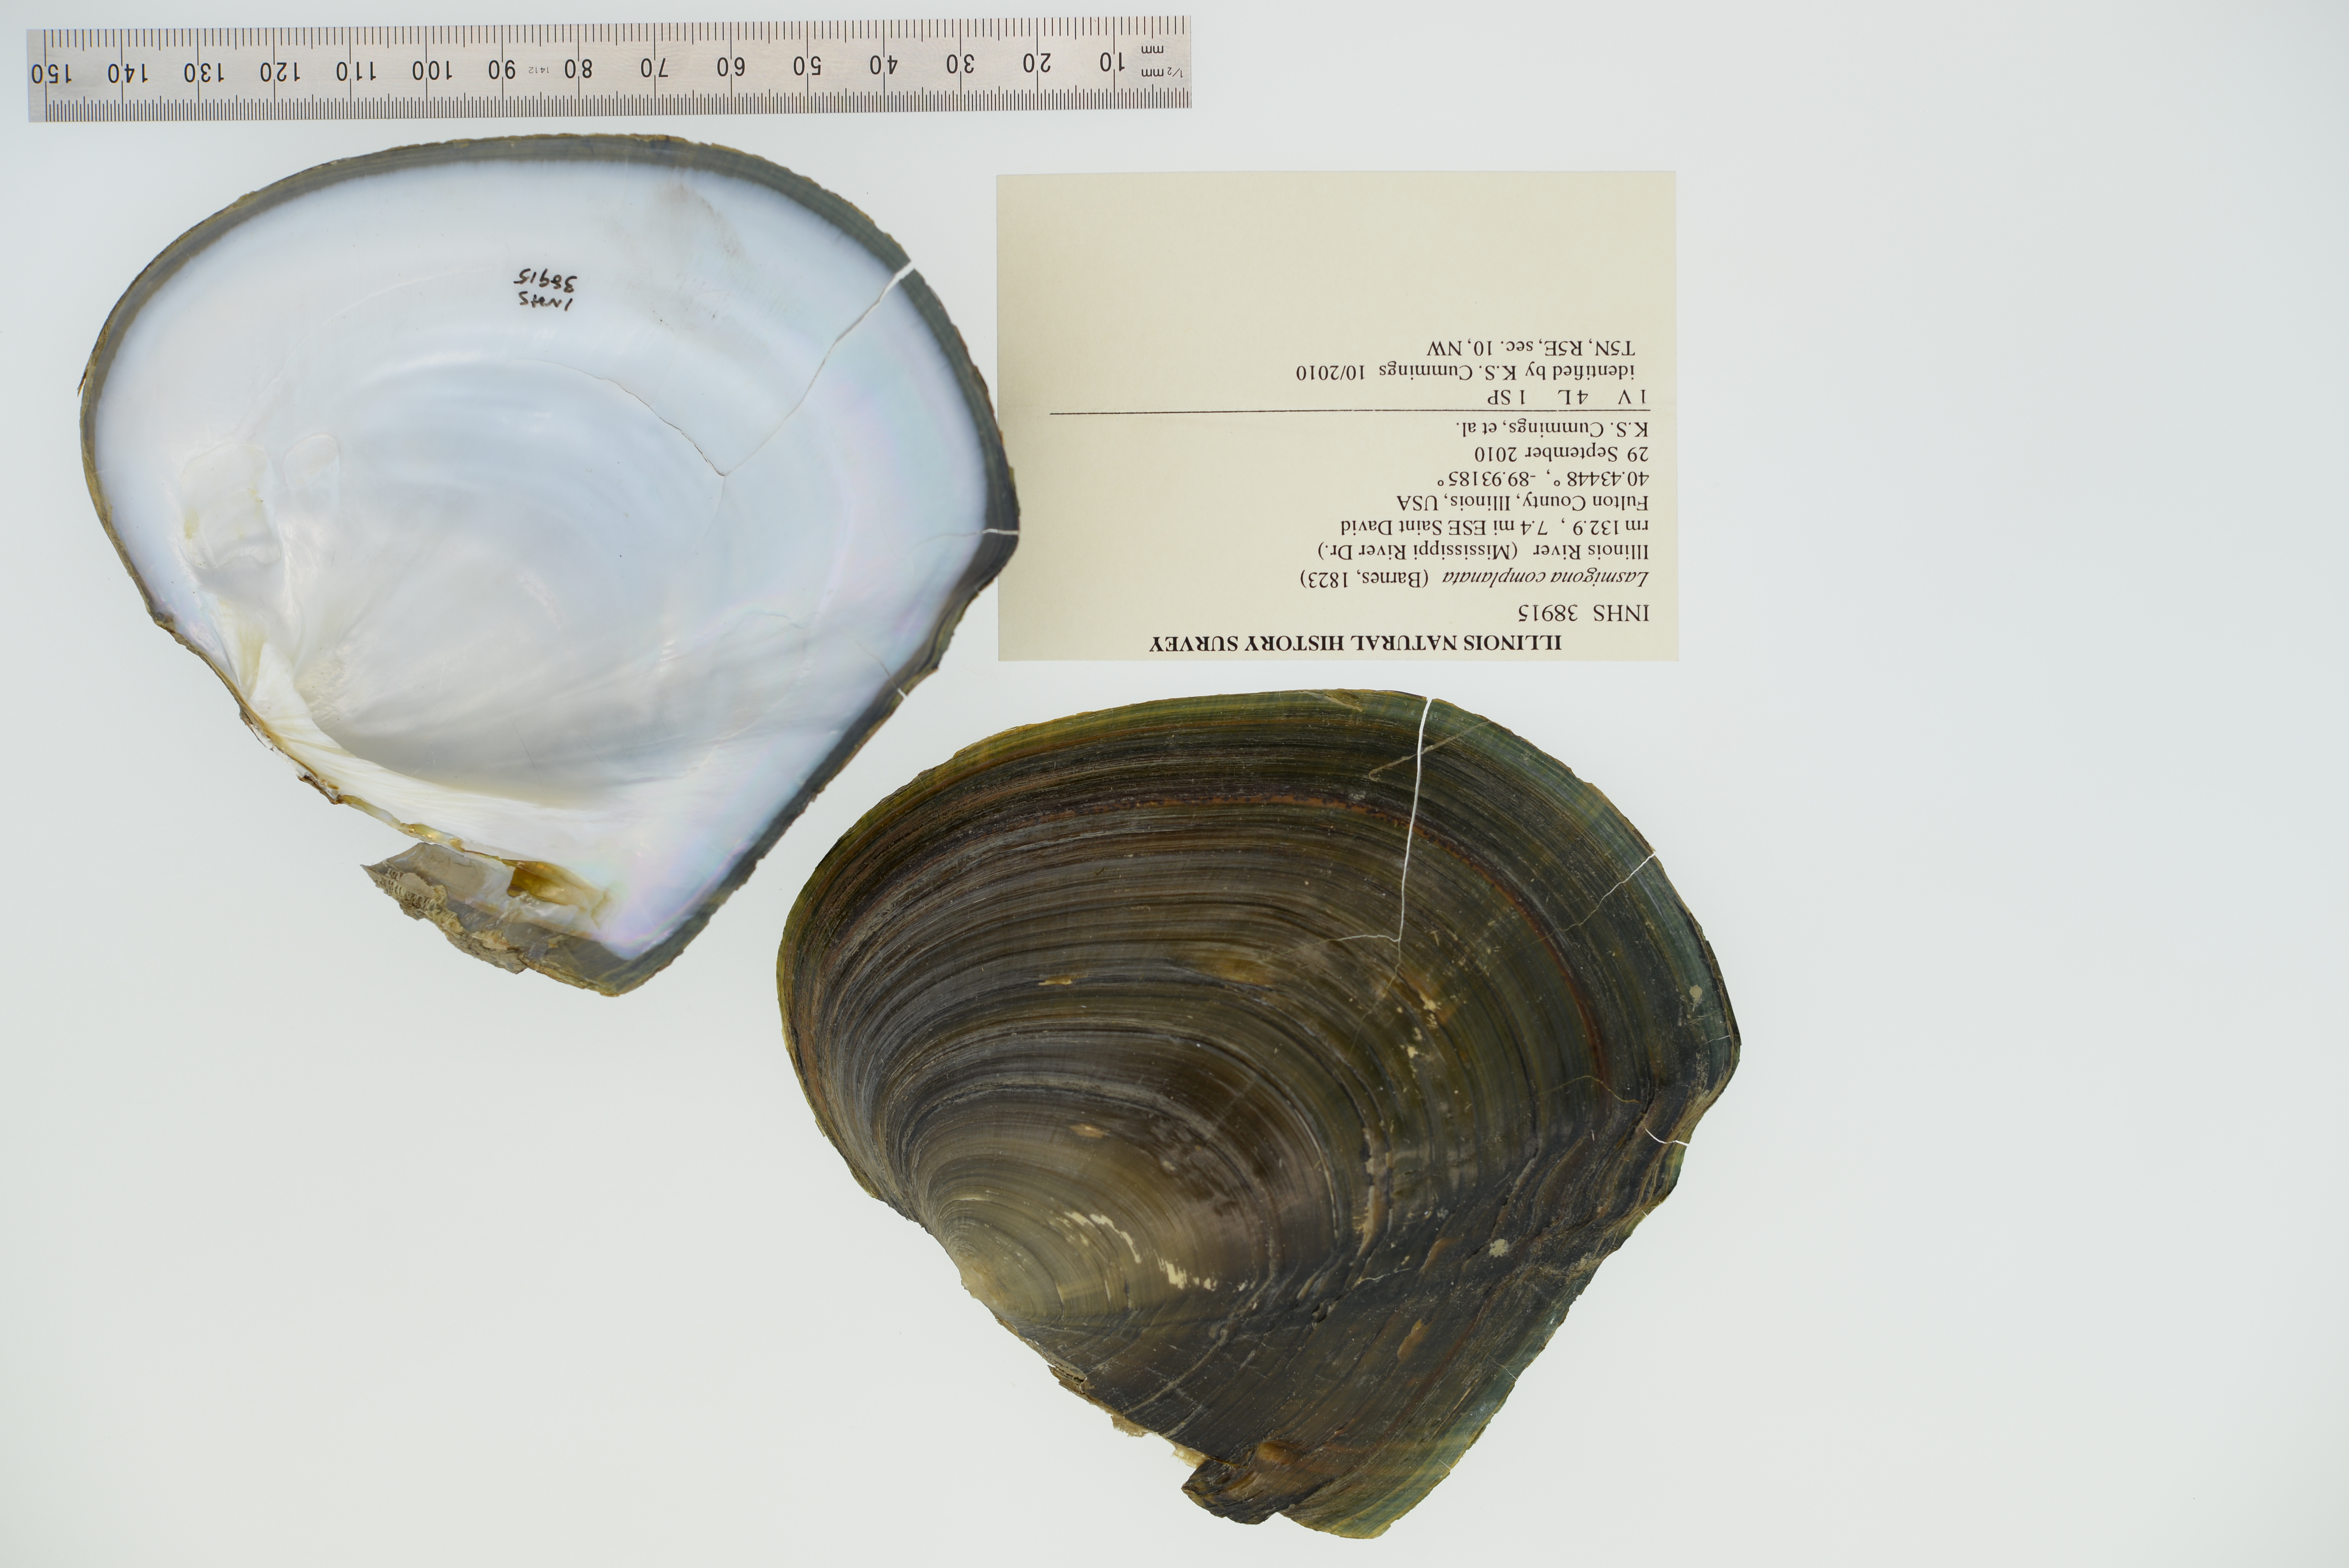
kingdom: Animalia
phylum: Mollusca
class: Bivalvia
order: Unionida
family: Unionidae
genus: Lasmigona
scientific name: Lasmigona complanata
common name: White heelsplitter
